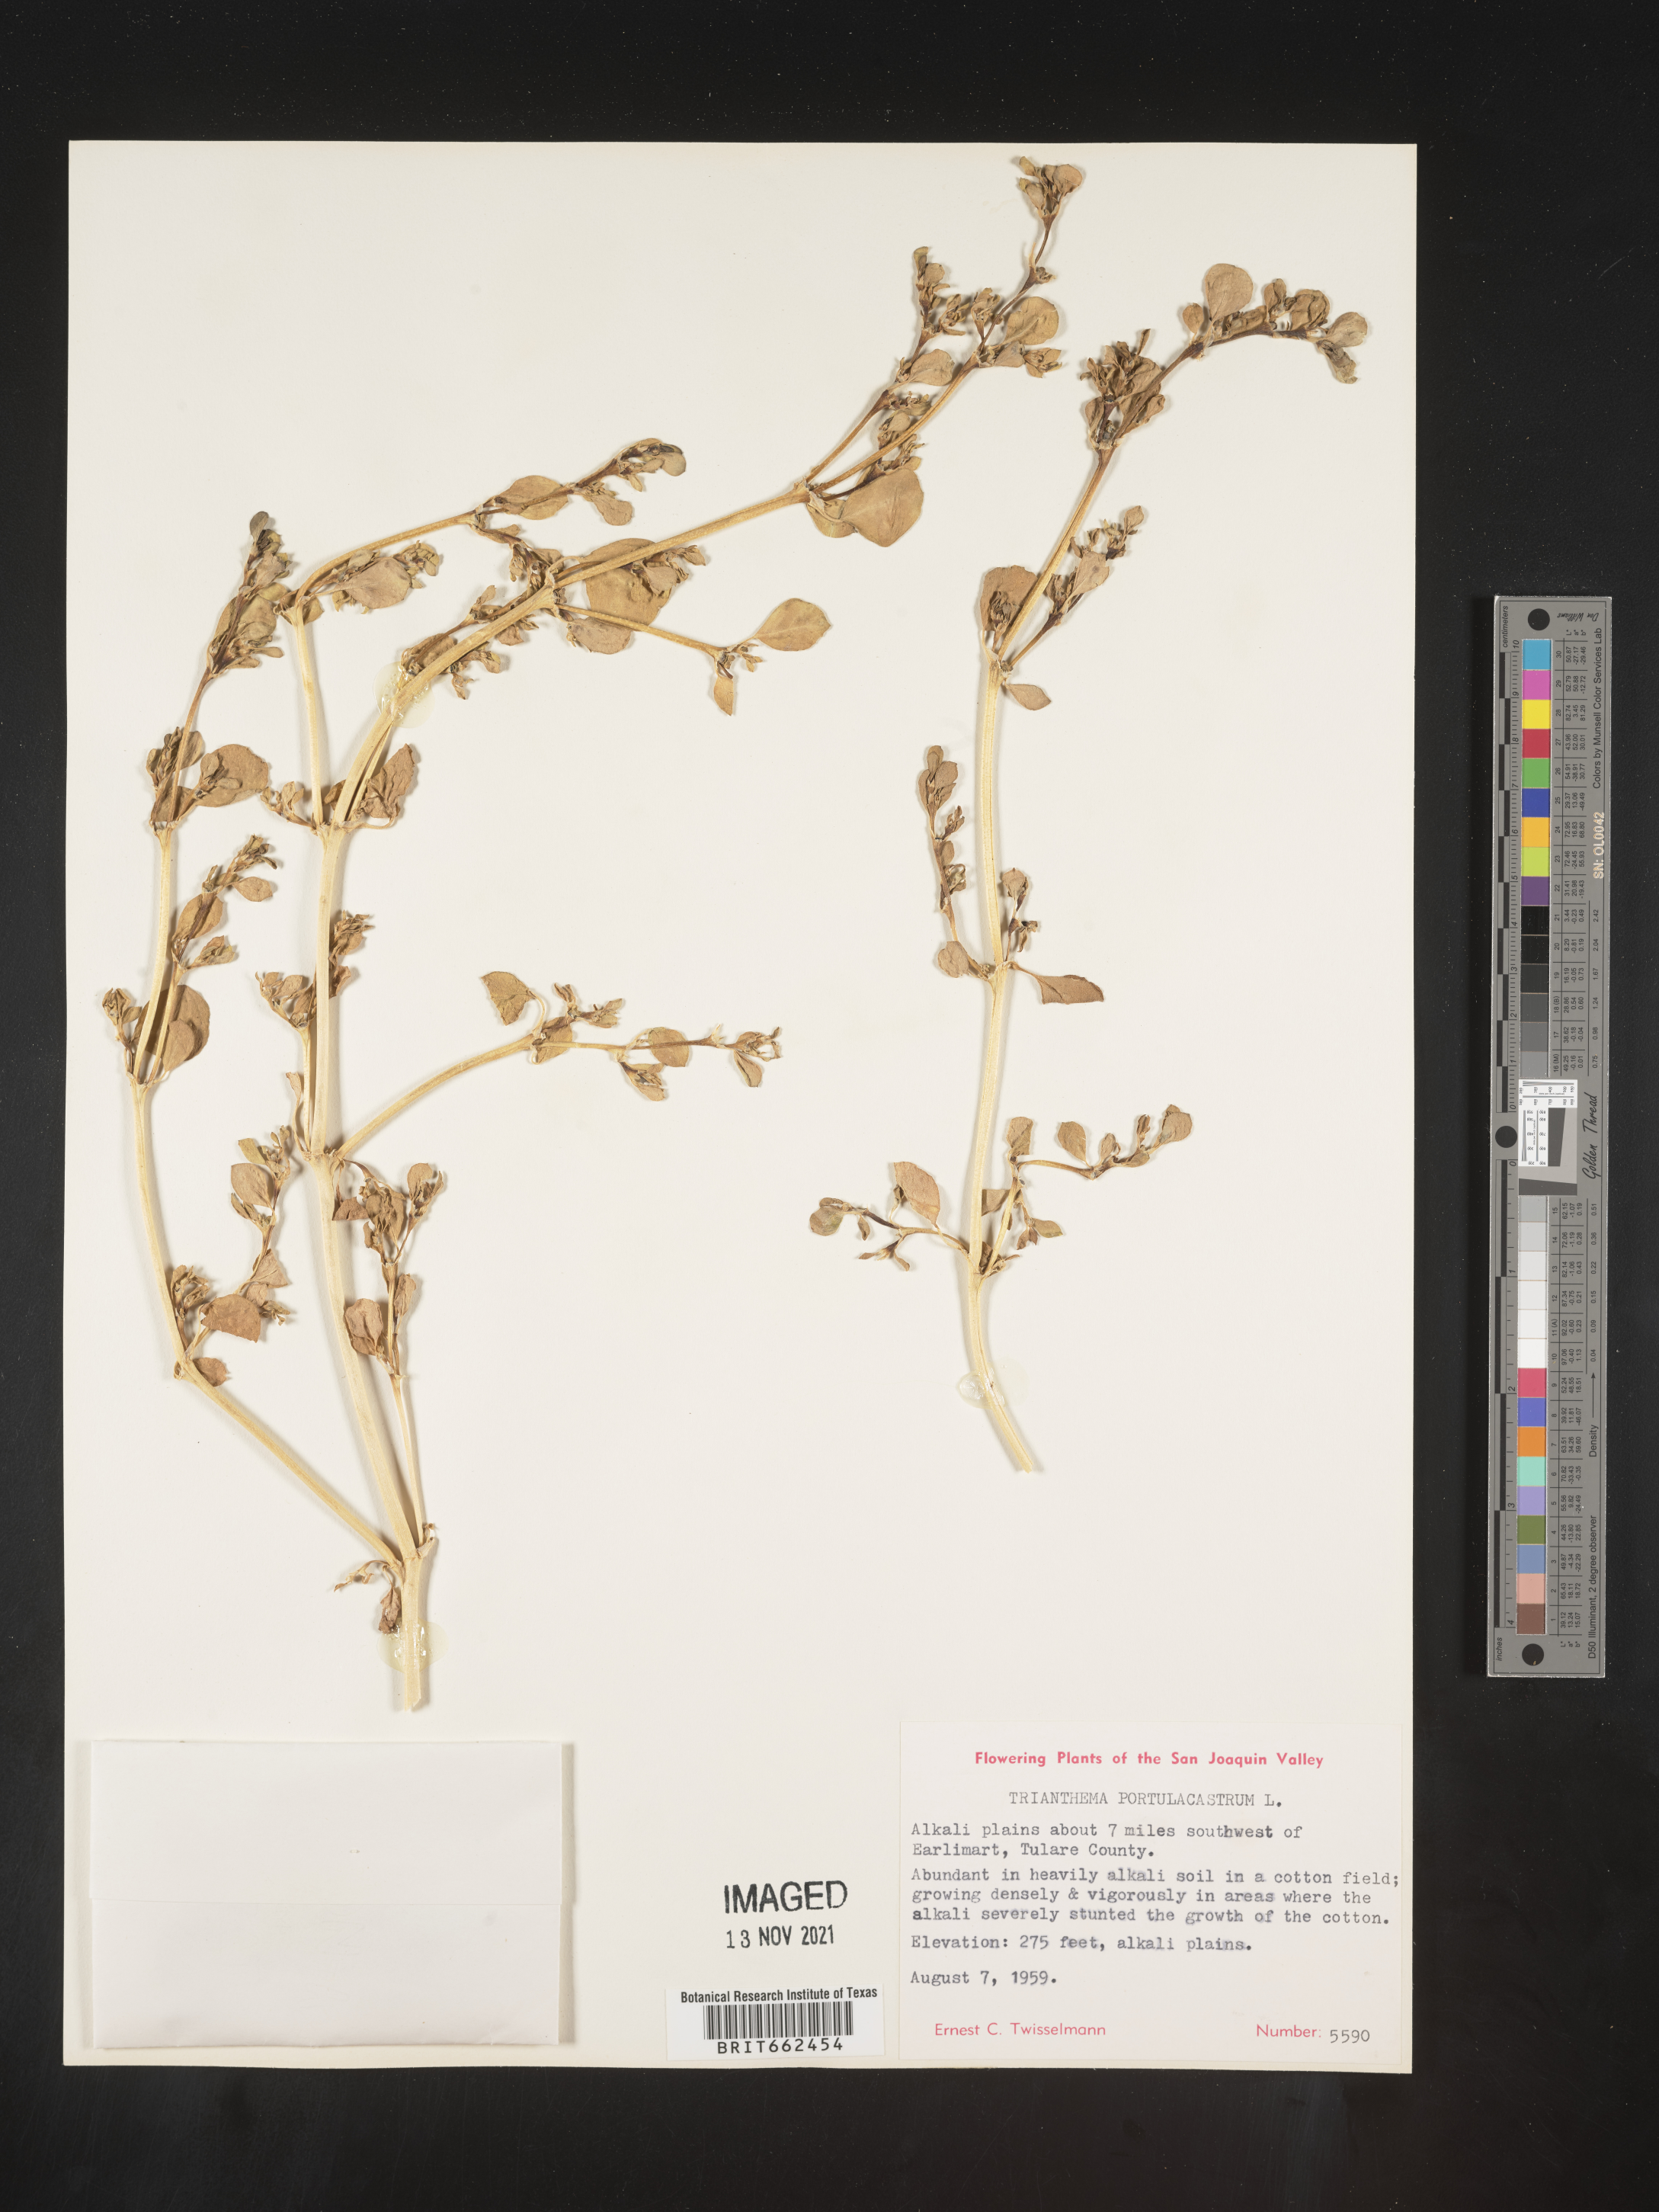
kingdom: Plantae
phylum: Tracheophyta
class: Magnoliopsida
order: Caryophyllales
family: Aizoaceae
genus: Trianthema
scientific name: Trianthema
